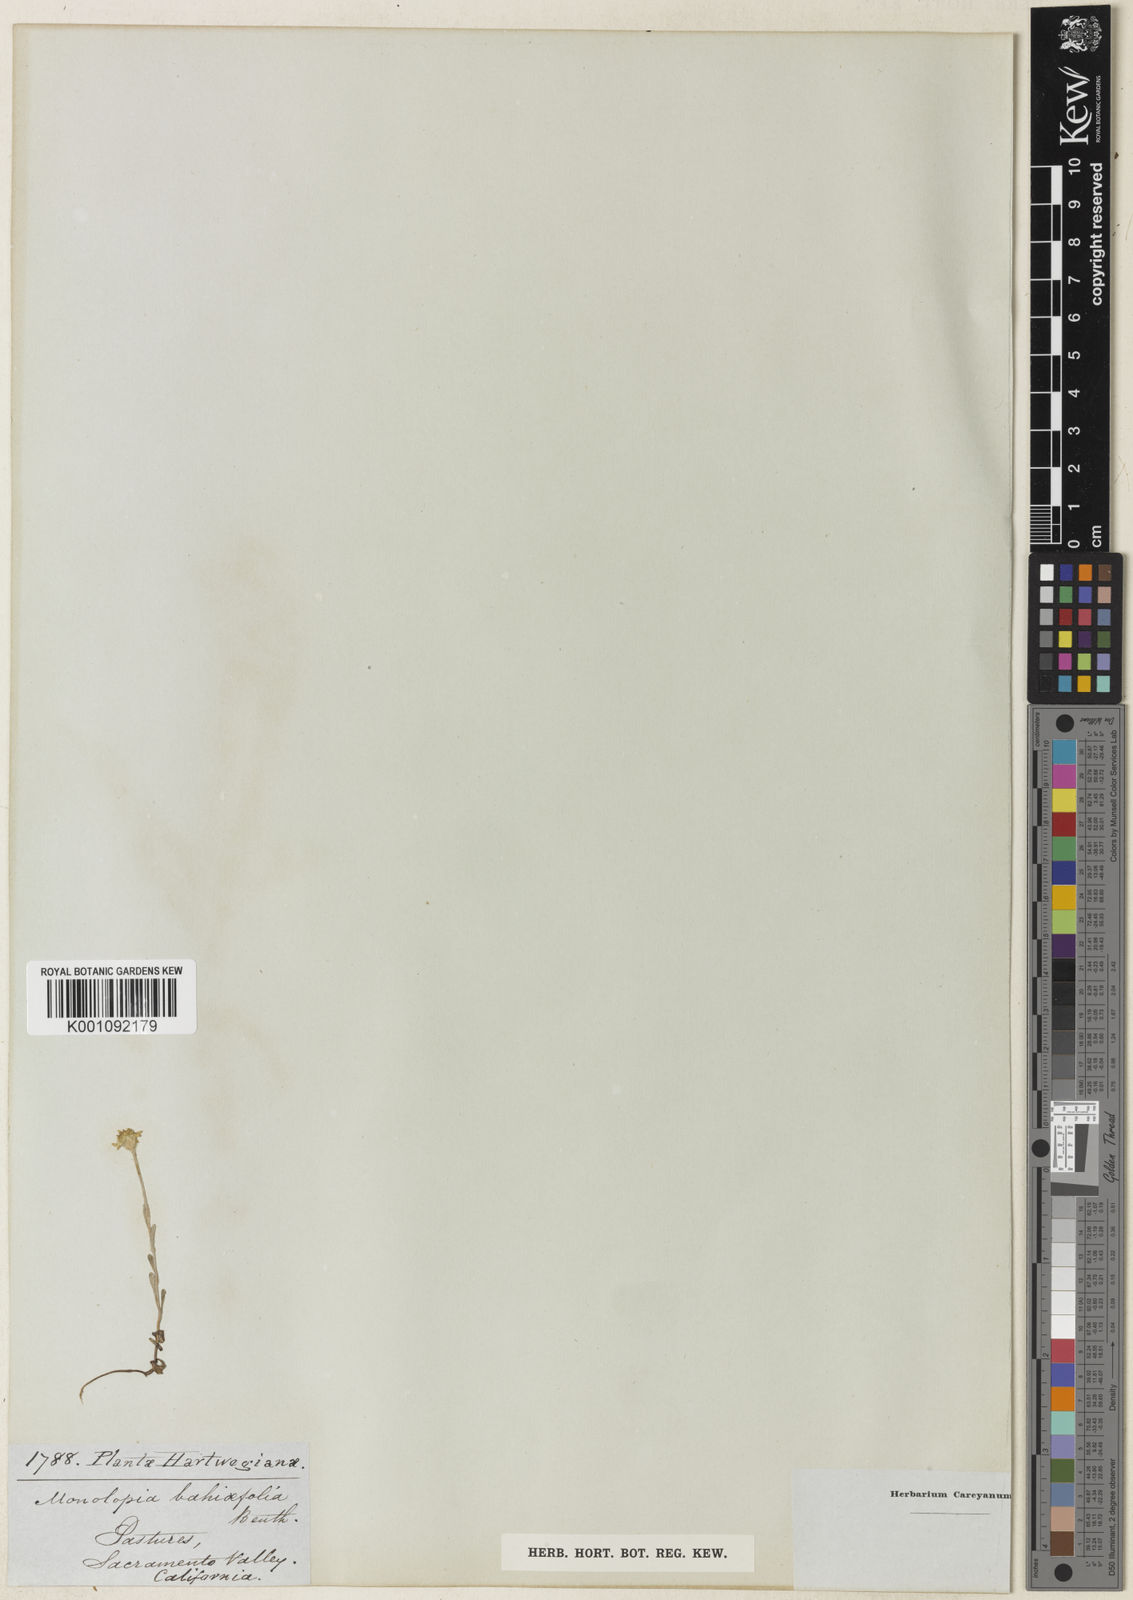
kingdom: Plantae
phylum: Tracheophyta
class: Magnoliopsida
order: Asterales
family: Asteraceae
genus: Pseudobahia
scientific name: Pseudobahia bahiifolia
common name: Hartweg's golden sunburst
